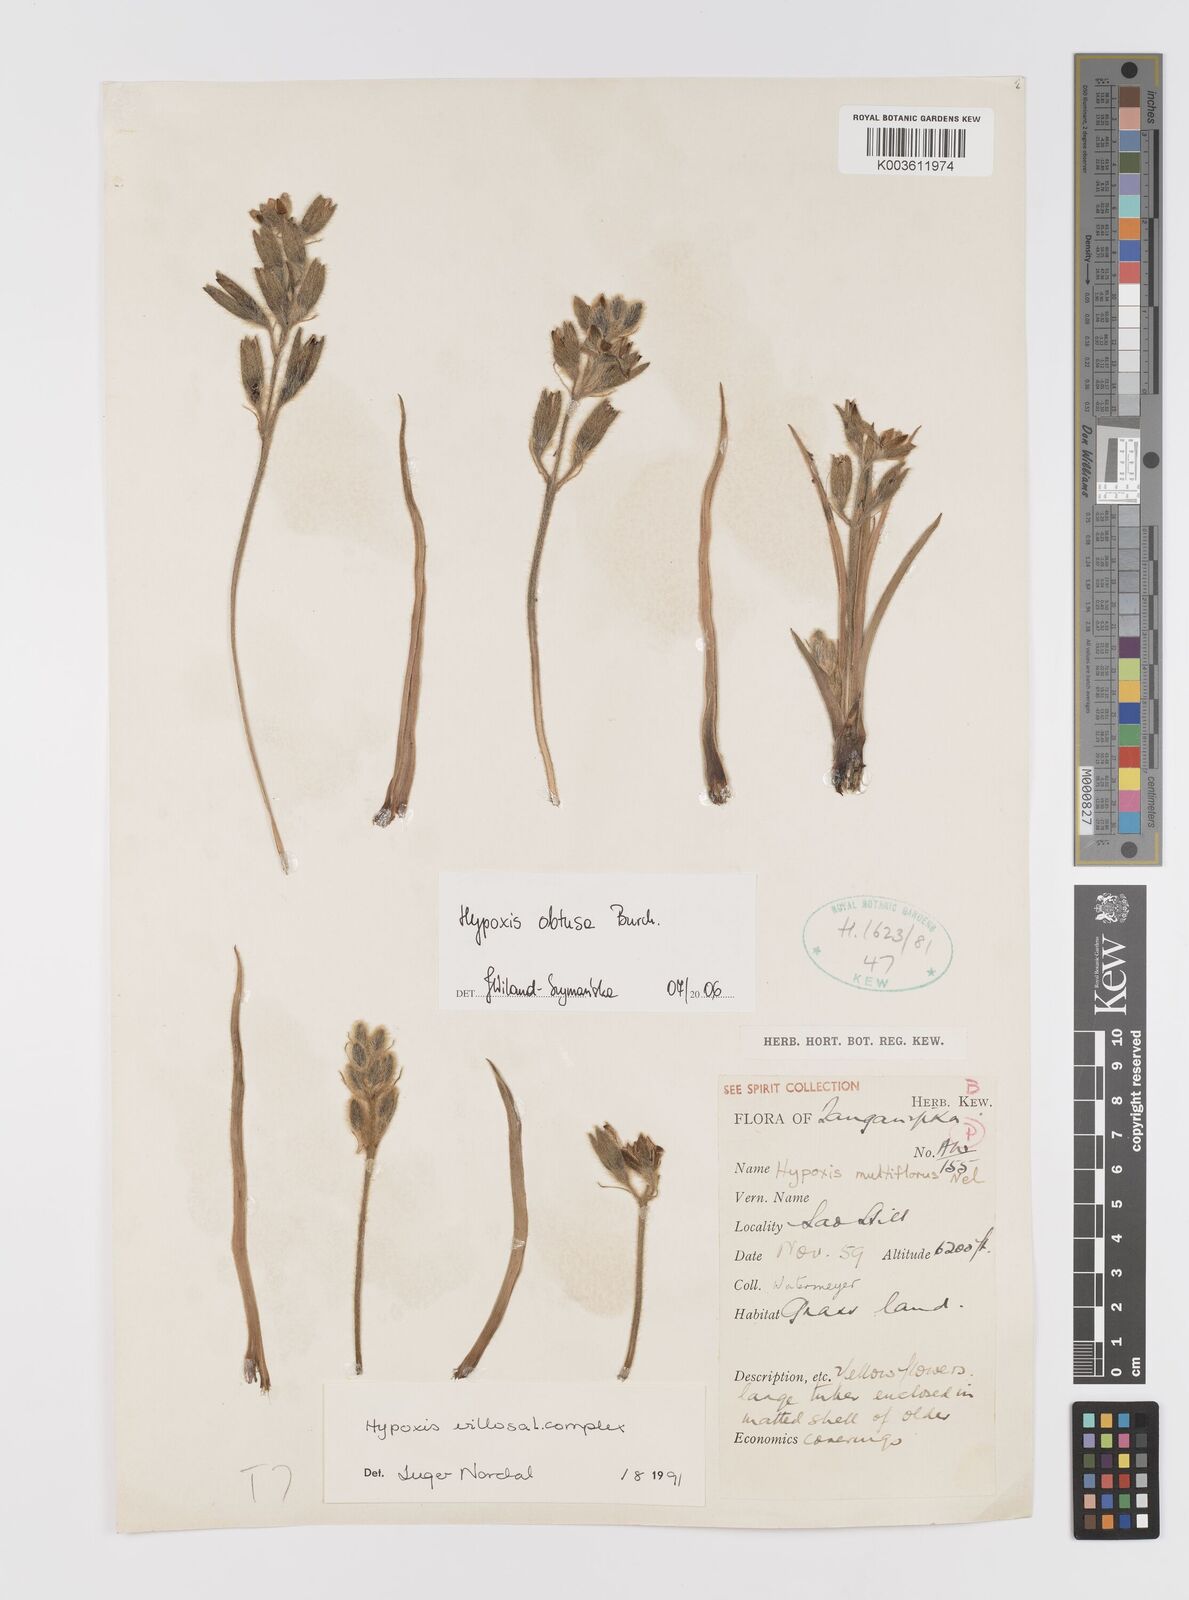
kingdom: Plantae
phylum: Tracheophyta
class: Liliopsida
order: Asparagales
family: Hypoxidaceae
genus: Hypoxis
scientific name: Hypoxis obtusa
